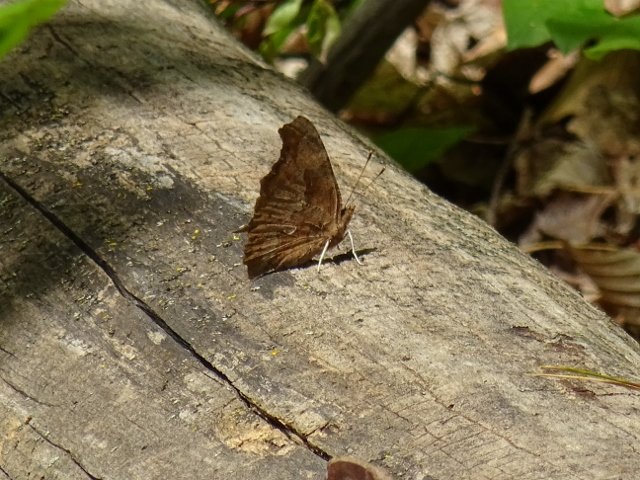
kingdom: Animalia
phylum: Arthropoda
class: Insecta
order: Lepidoptera
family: Nymphalidae
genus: Polygonia
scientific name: Polygonia comma
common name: Eastern Comma
